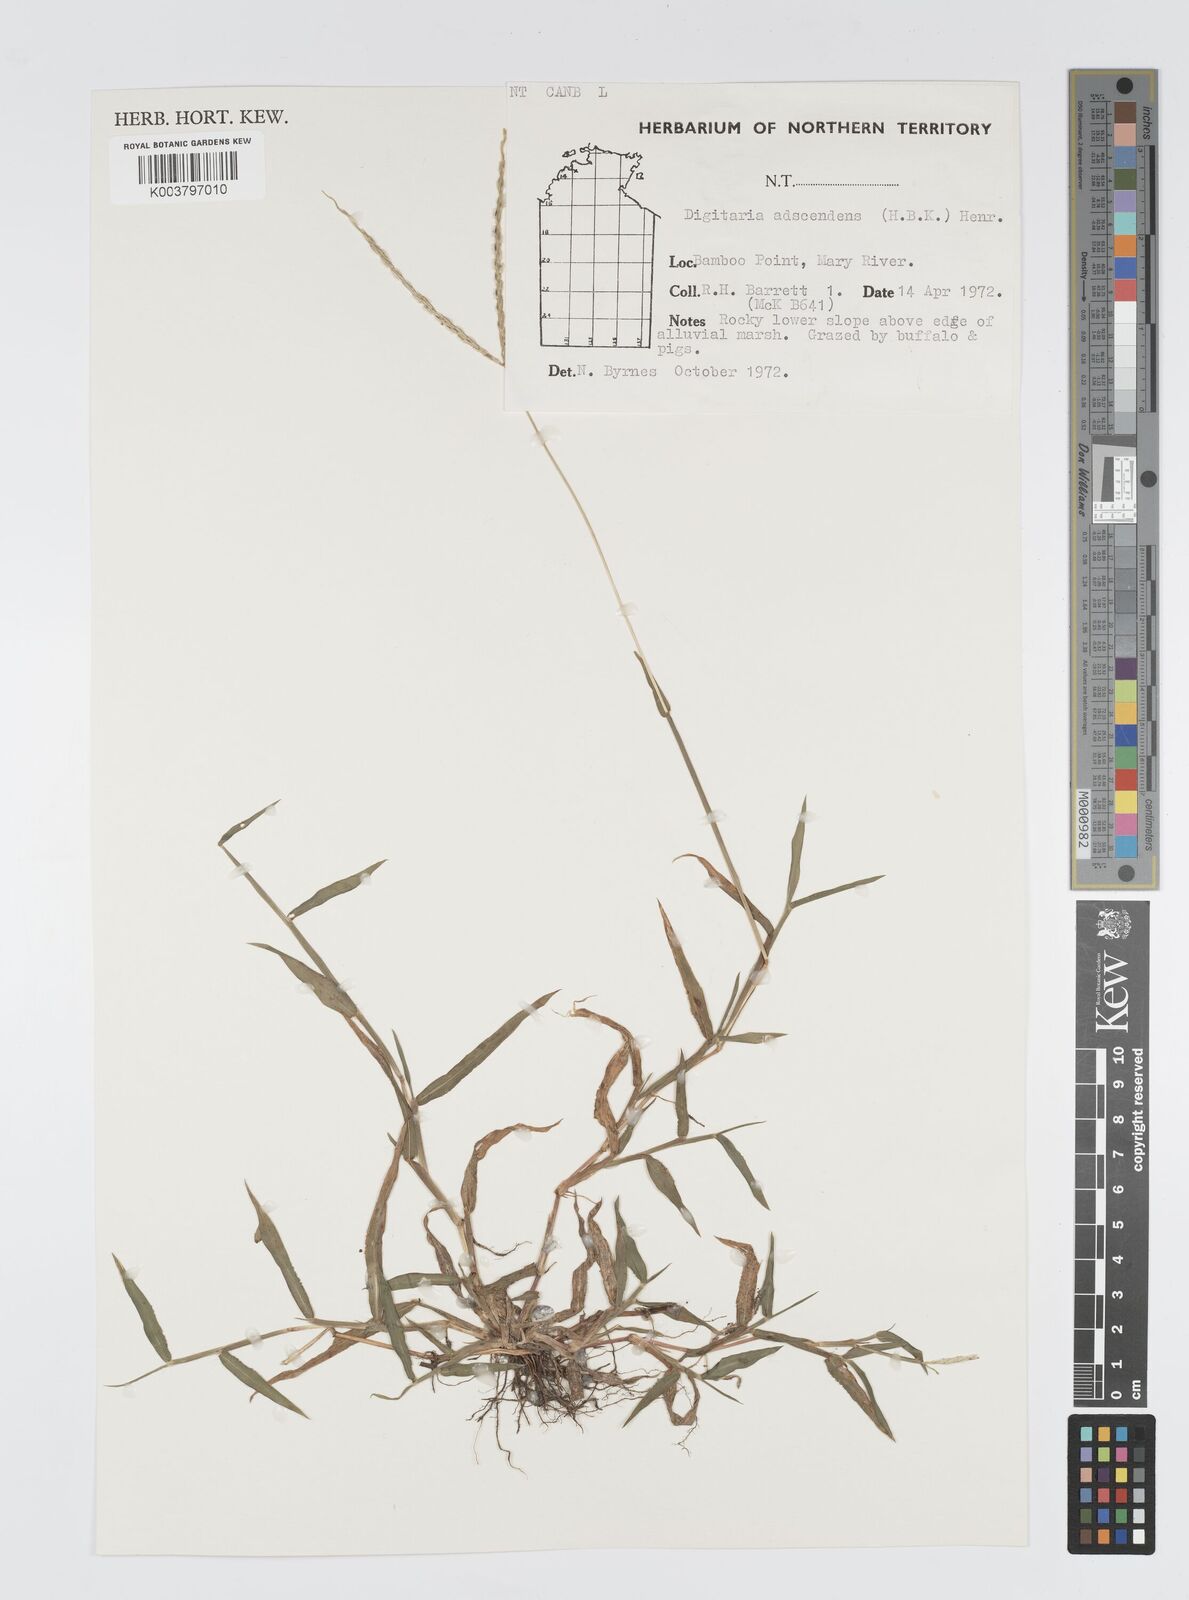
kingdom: Plantae
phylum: Tracheophyta
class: Liliopsida
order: Poales
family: Poaceae
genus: Digitaria
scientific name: Digitaria ciliaris
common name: Tropical finger-grass
